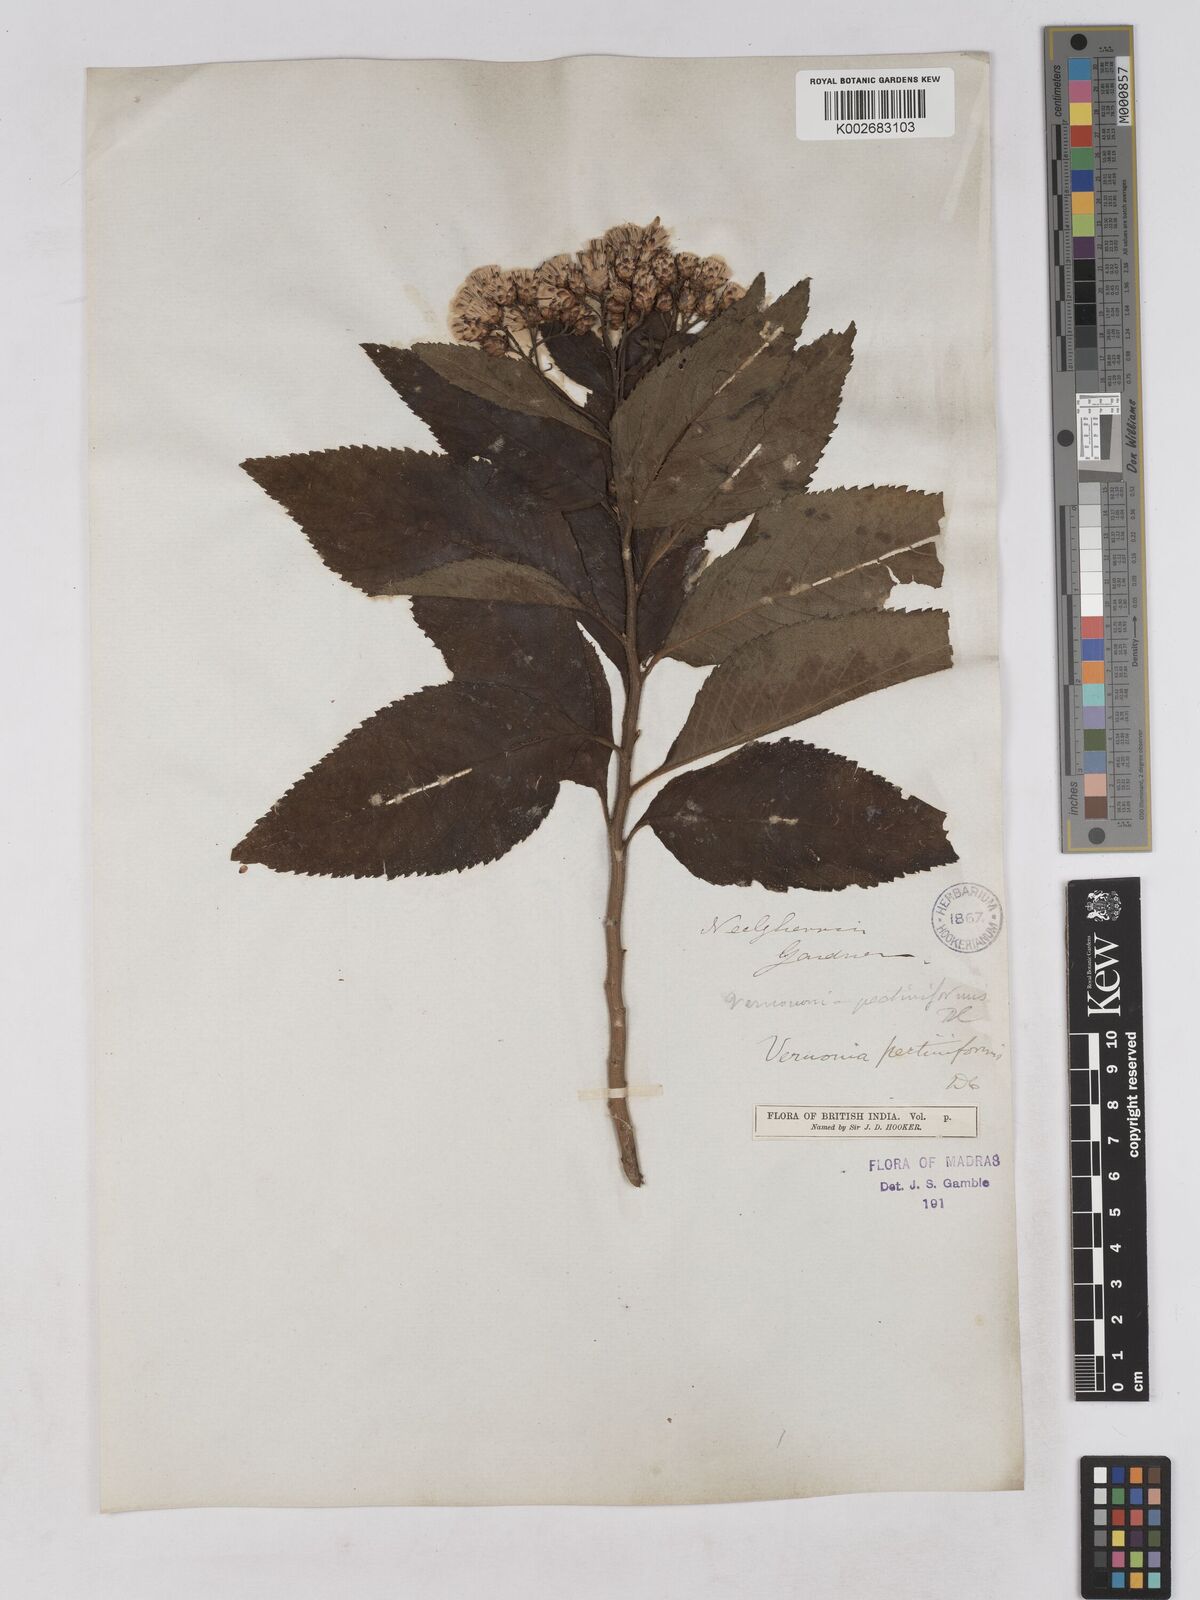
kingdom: Plantae
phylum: Tracheophyta
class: Magnoliopsida
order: Asterales
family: Asteraceae
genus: Gymnanthemum
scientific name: Gymnanthemum pectiniforme
